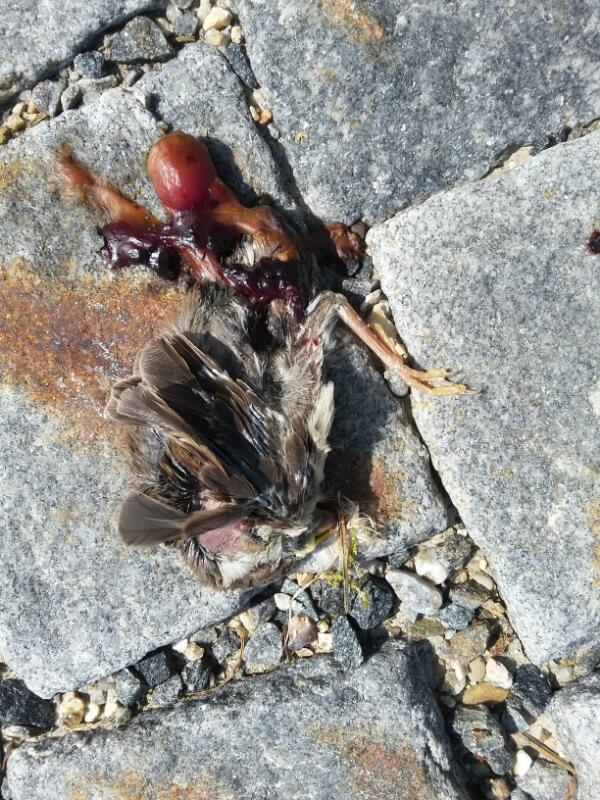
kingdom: Animalia
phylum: Chordata
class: Aves
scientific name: Aves
